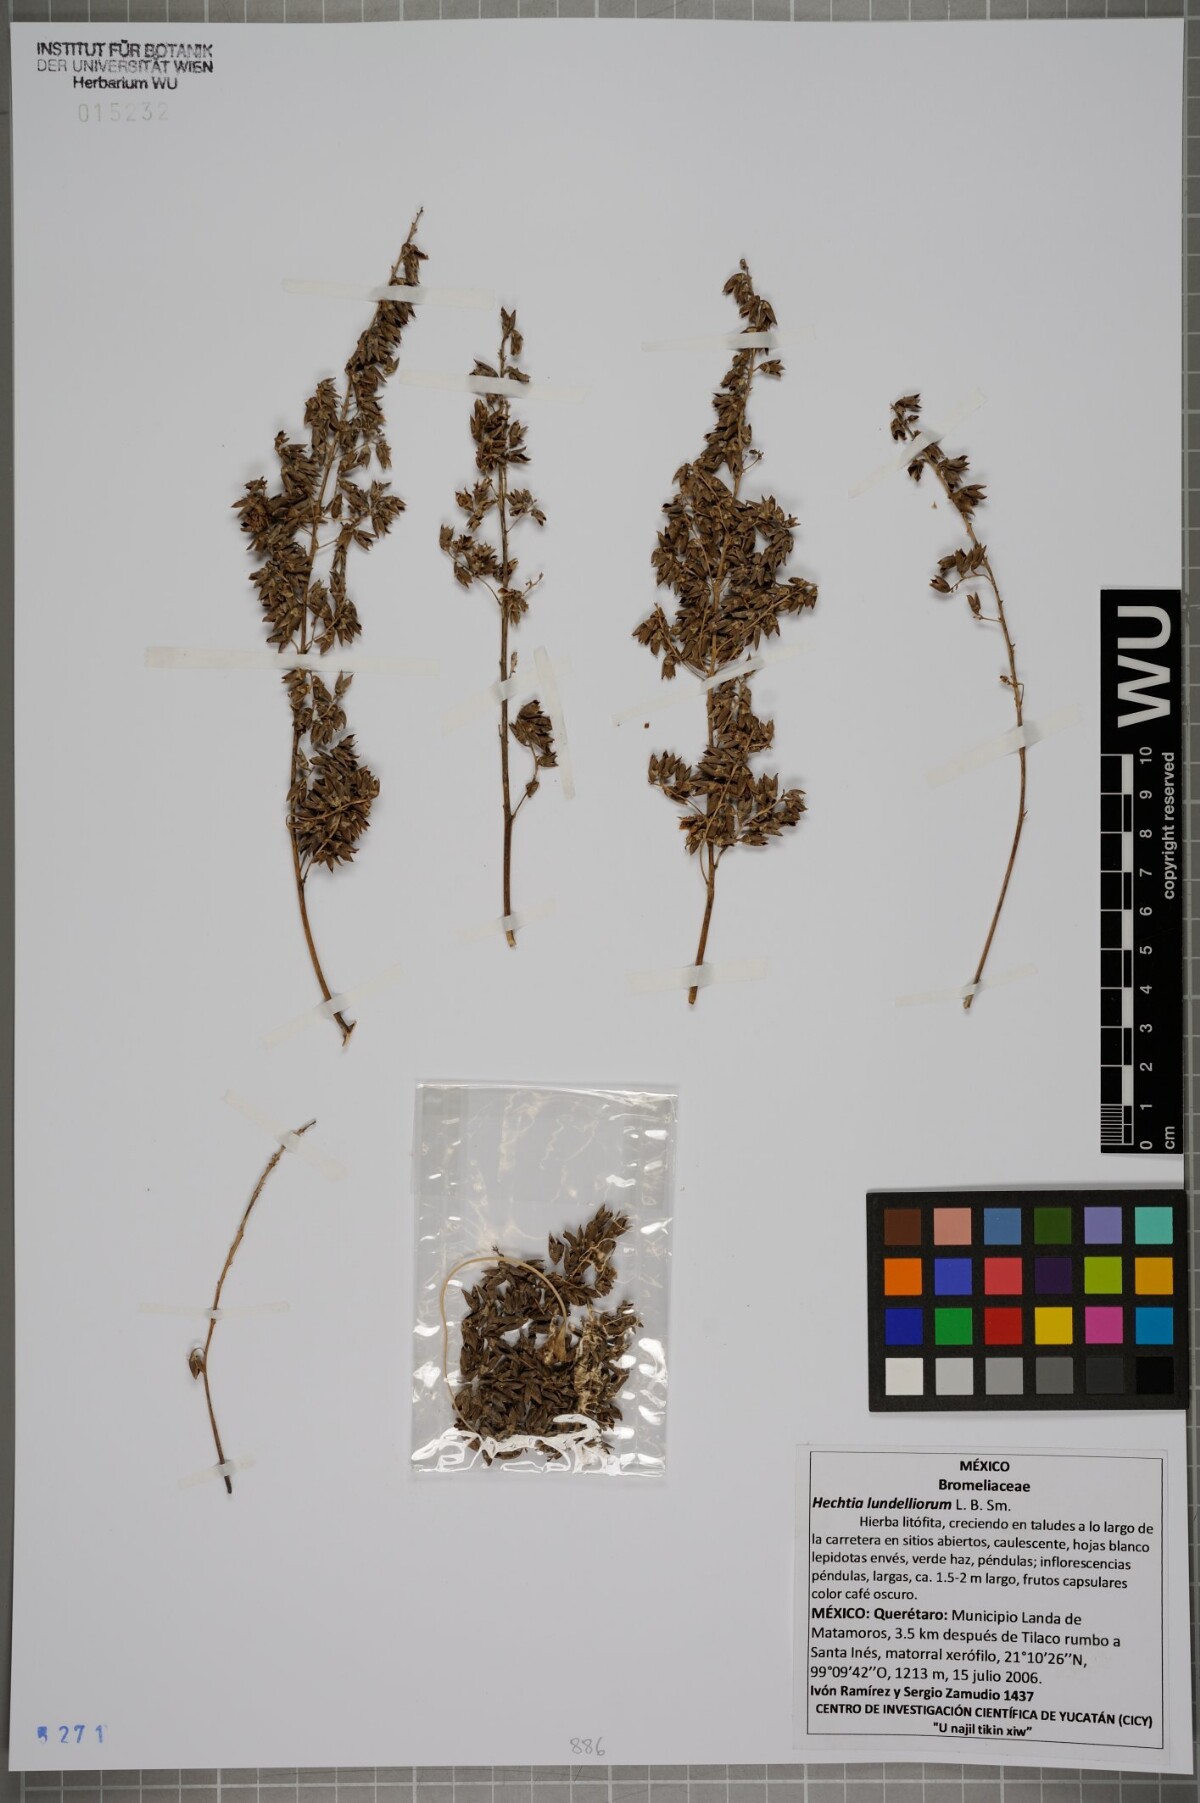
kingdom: Plantae
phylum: Tracheophyta
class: Liliopsida
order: Poales
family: Bromeliaceae
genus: Hechtia
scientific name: Hechtia lundelliorum
